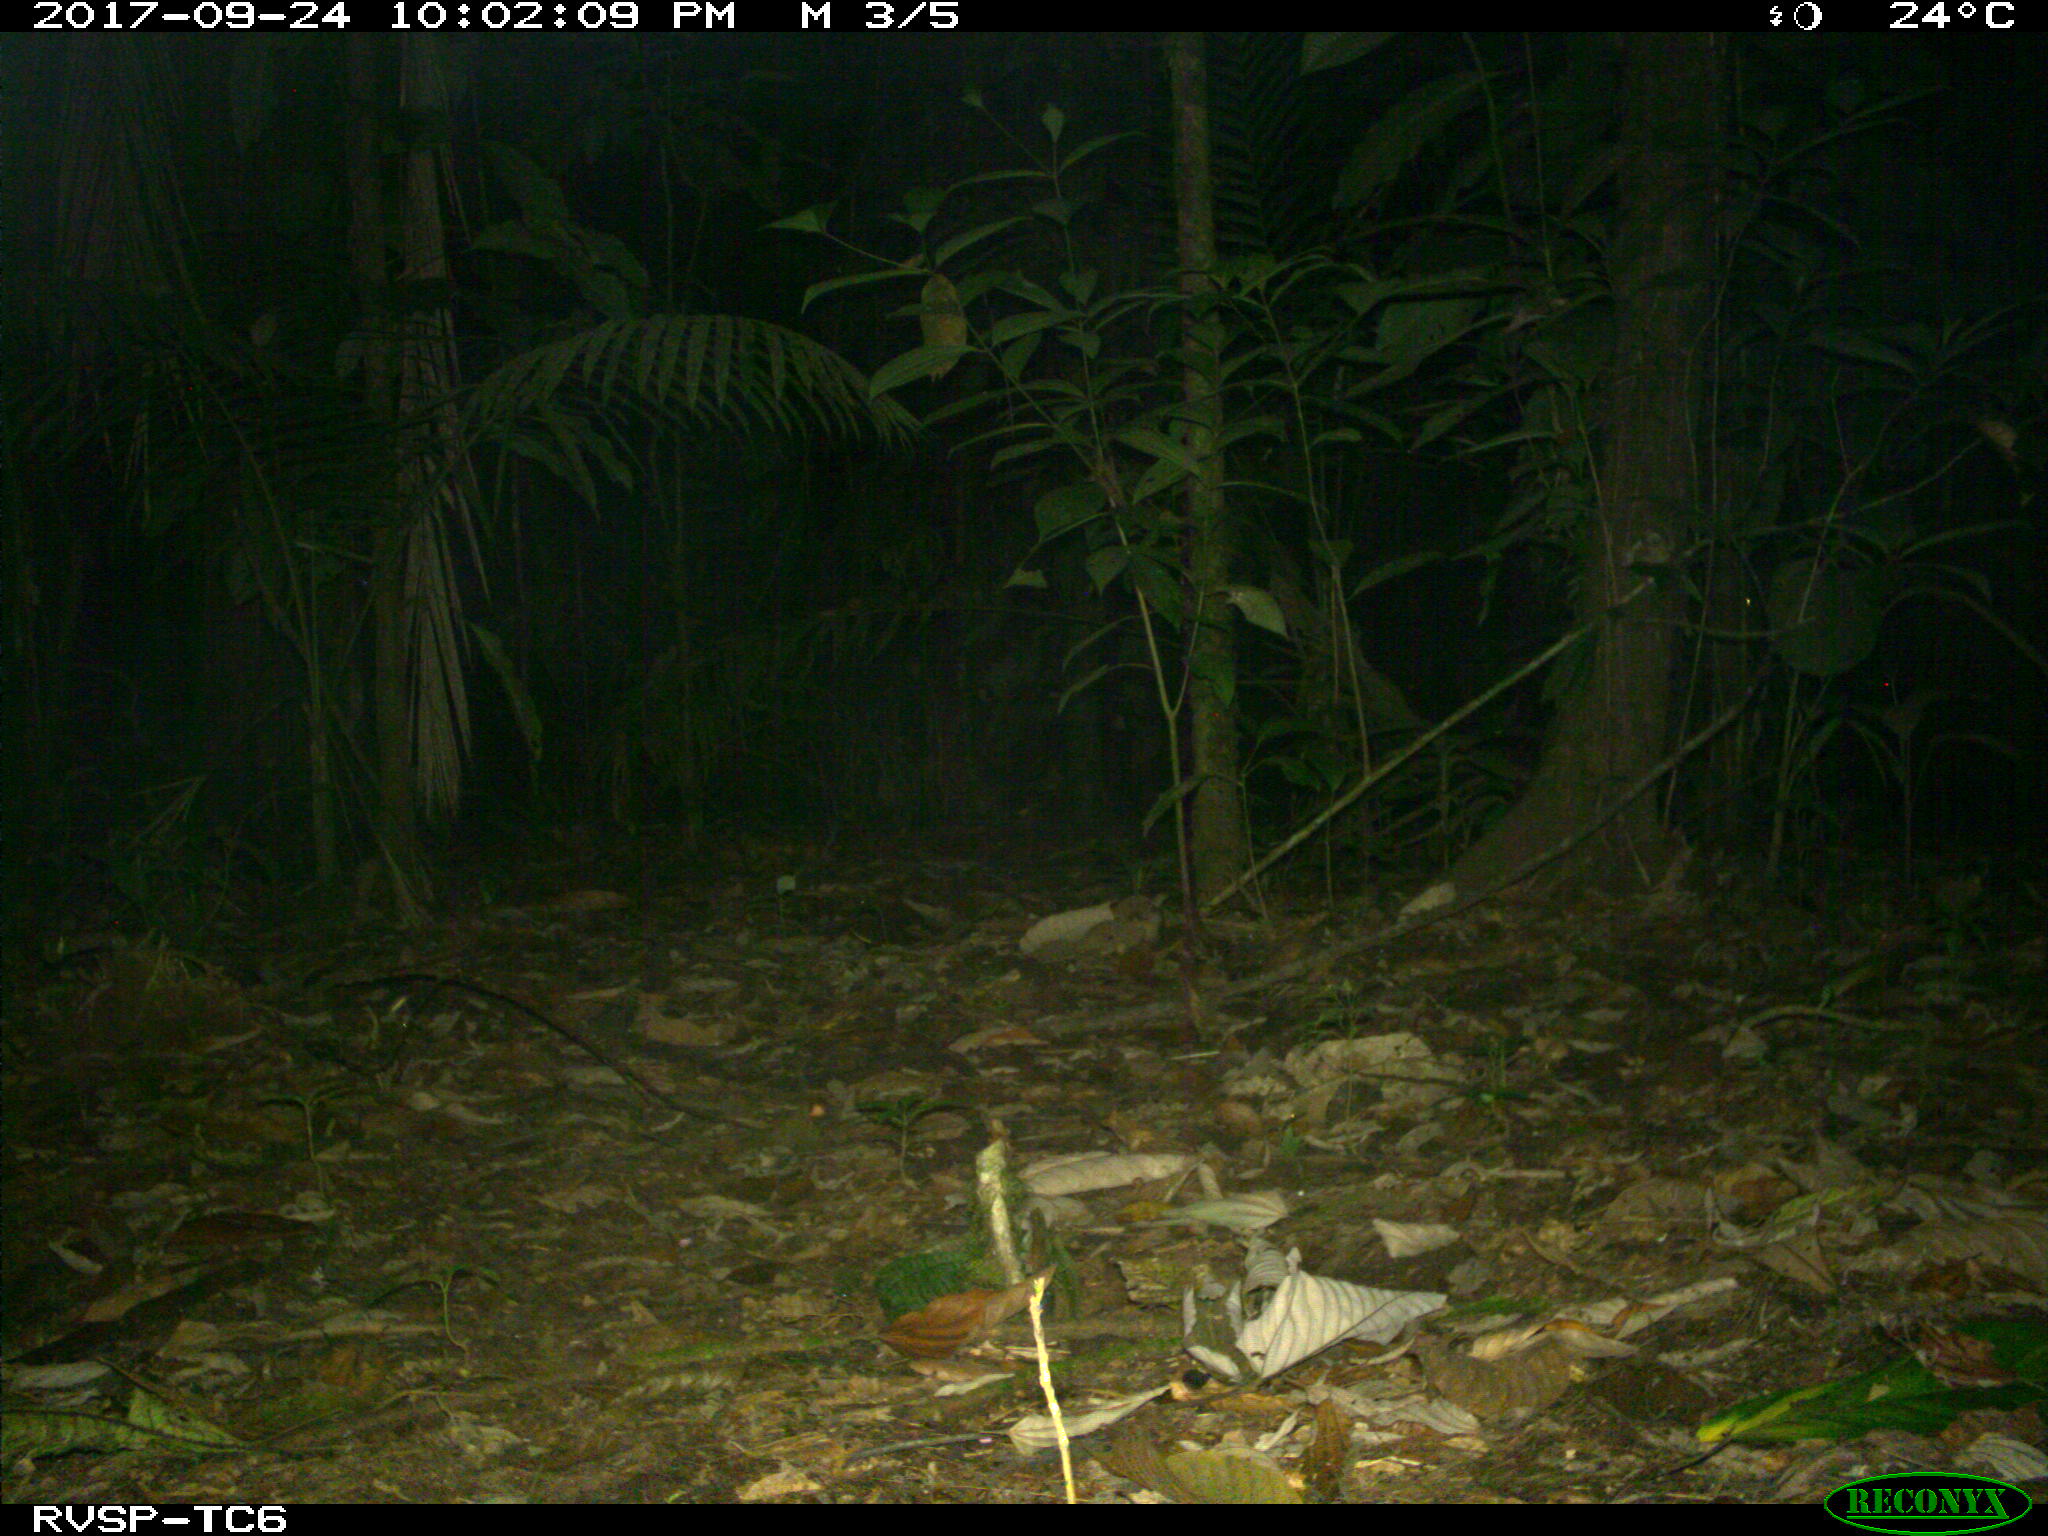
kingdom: Animalia
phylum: Chordata
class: Mammalia
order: Carnivora
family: Felidae
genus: Leopardus
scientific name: Leopardus wiedii
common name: Margay
